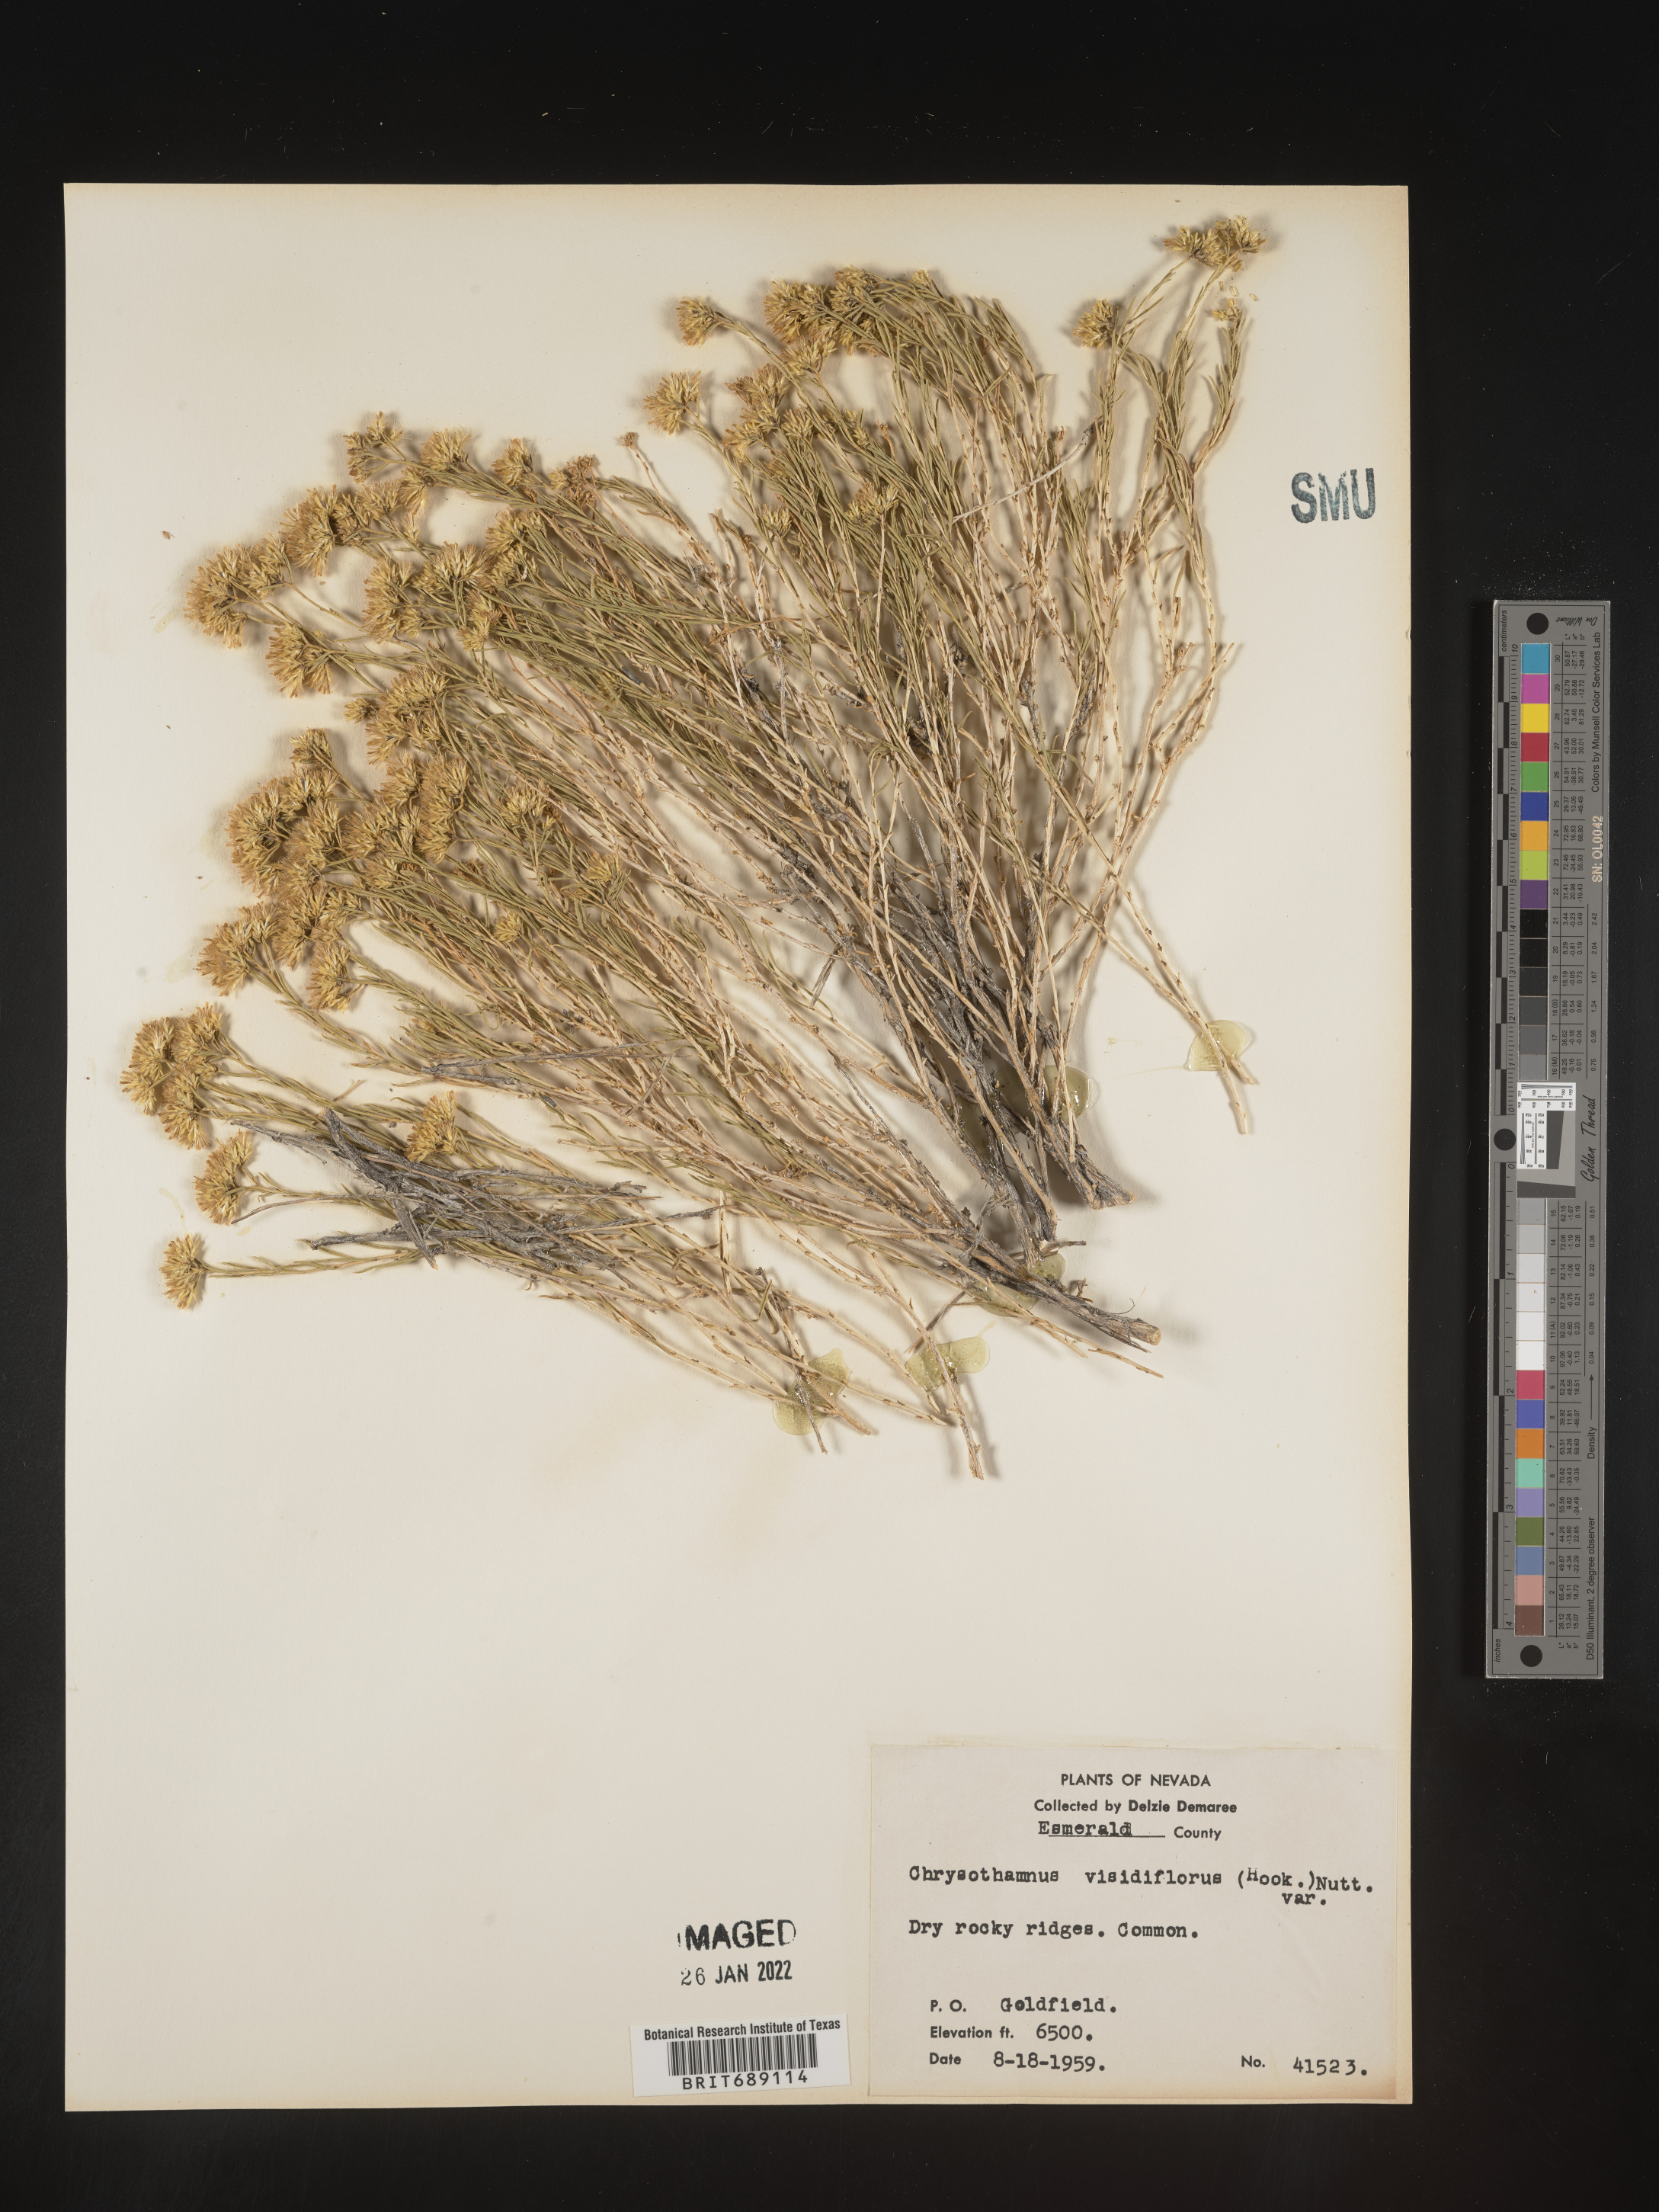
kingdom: Plantae
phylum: Tracheophyta
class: Magnoliopsida
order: Asterales
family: Asteraceae
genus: Chrysothamnus
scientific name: Chrysothamnus viscidiflorus
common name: Yellow rabbitbrush
